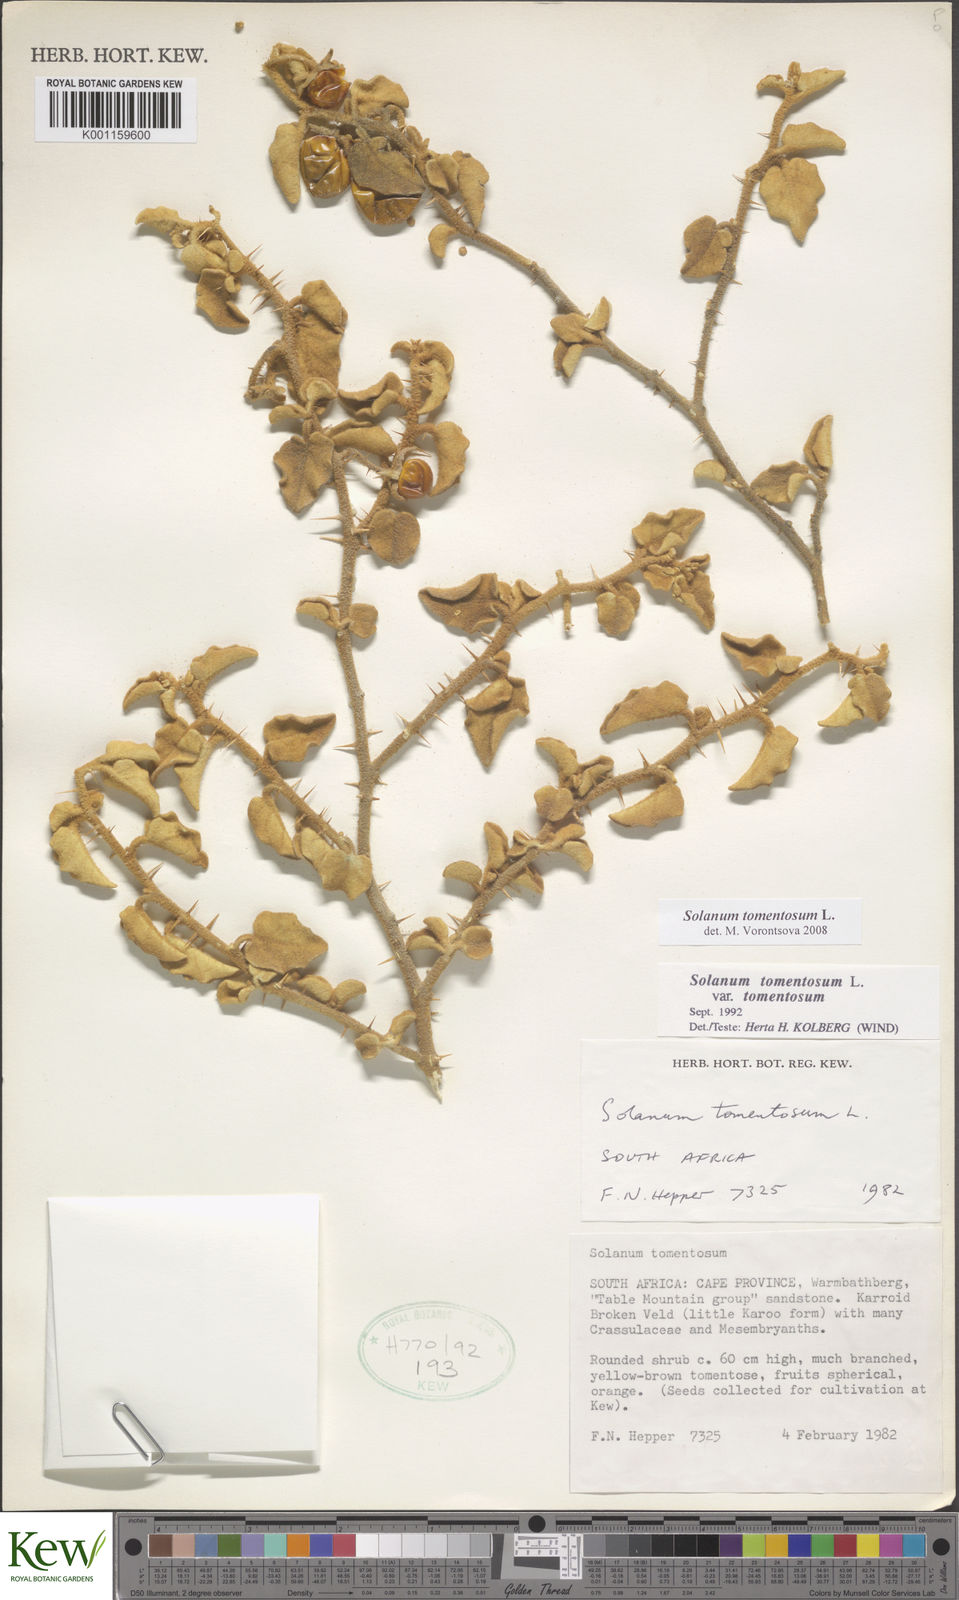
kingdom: Plantae
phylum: Tracheophyta
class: Magnoliopsida
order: Solanales
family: Solanaceae
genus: Solanum
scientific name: Solanum tomentosum
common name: Wild aubergine
